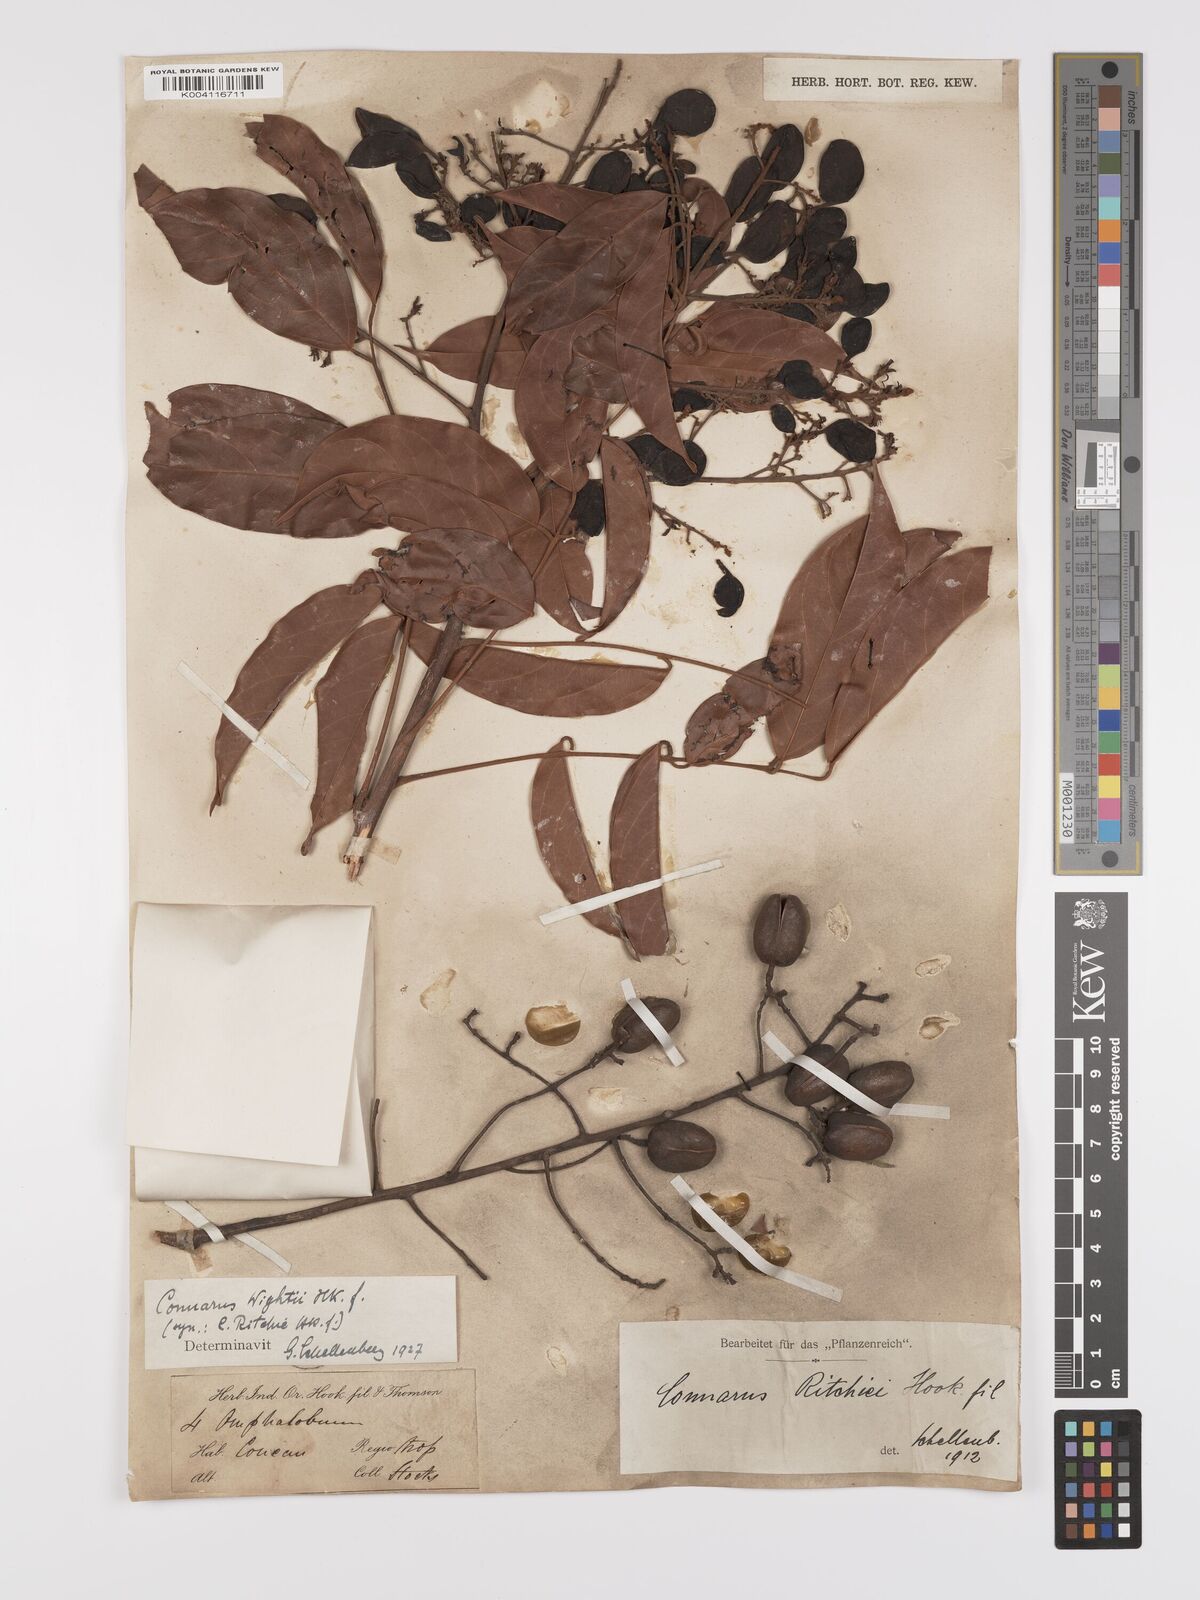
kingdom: Plantae
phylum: Tracheophyta
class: Magnoliopsida
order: Oxalidales
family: Connaraceae
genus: Connarus
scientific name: Connarus wightii
